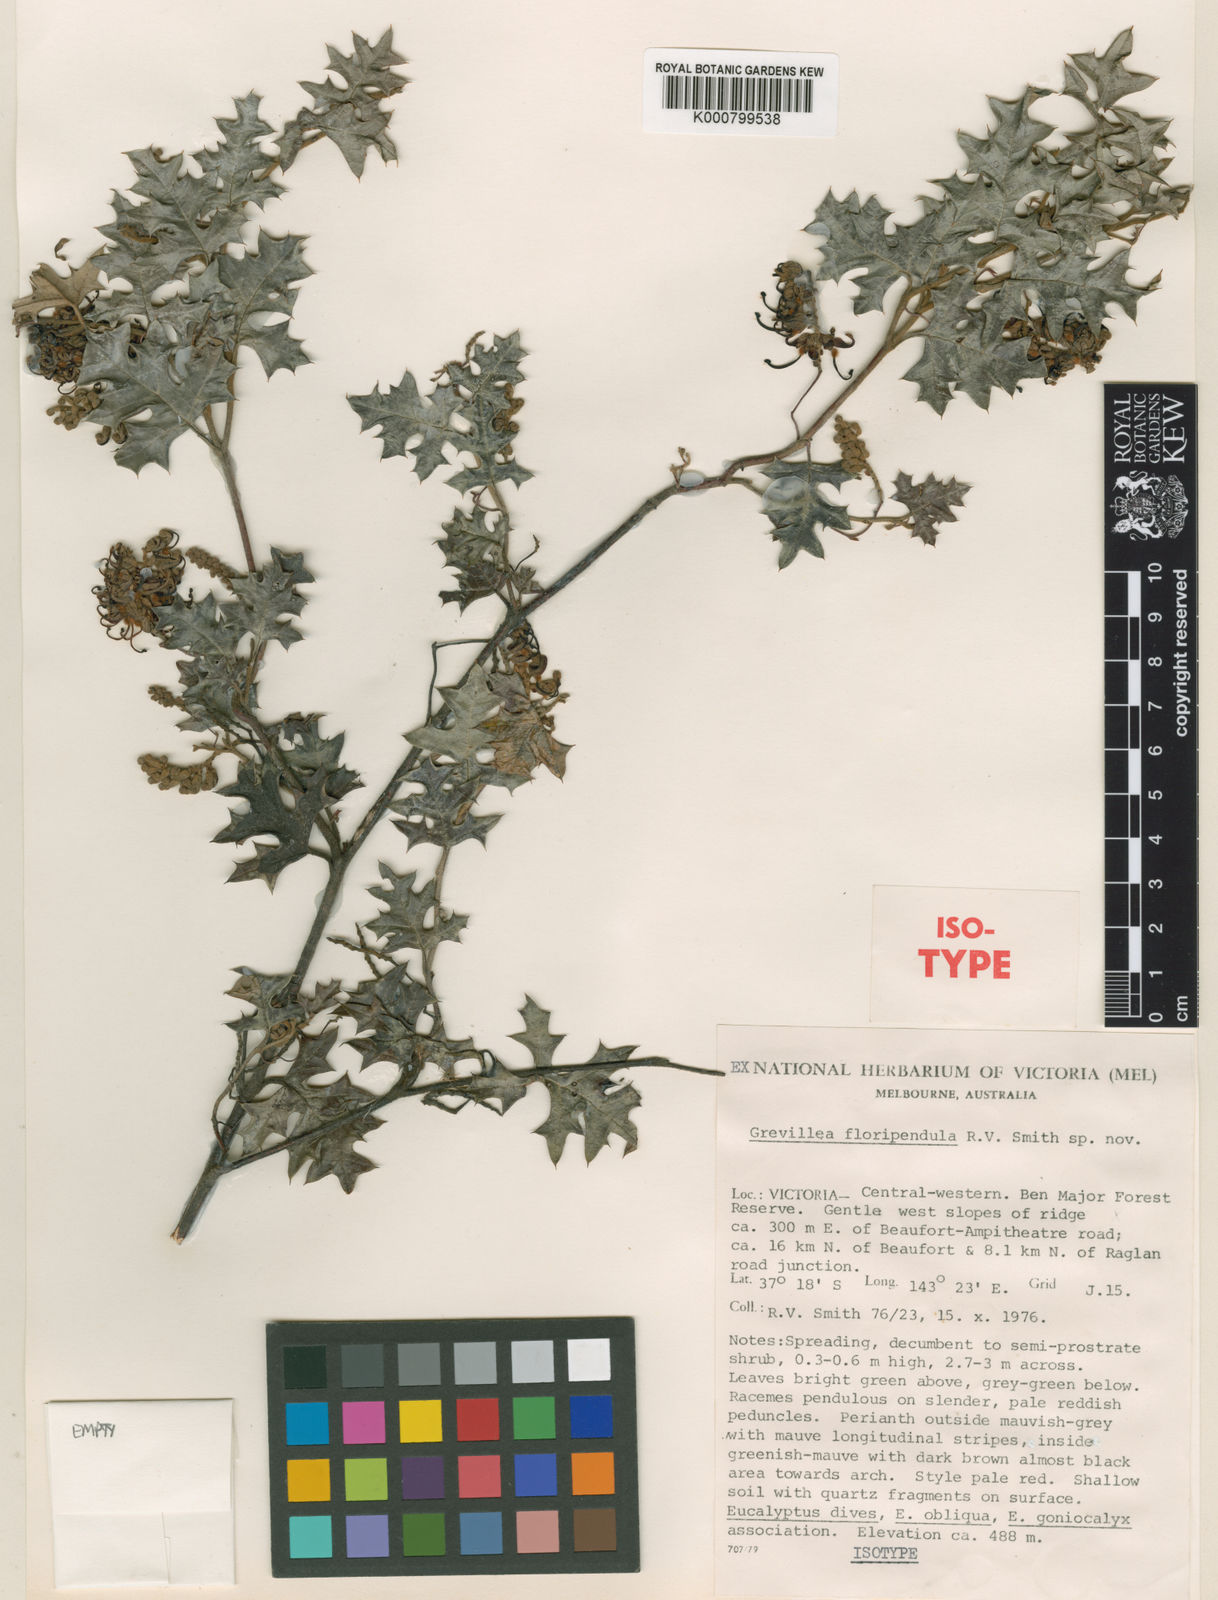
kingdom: Plantae
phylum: Tracheophyta
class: Magnoliopsida
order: Proteales
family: Proteaceae
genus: Grevillea
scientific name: Grevillea floripendula
